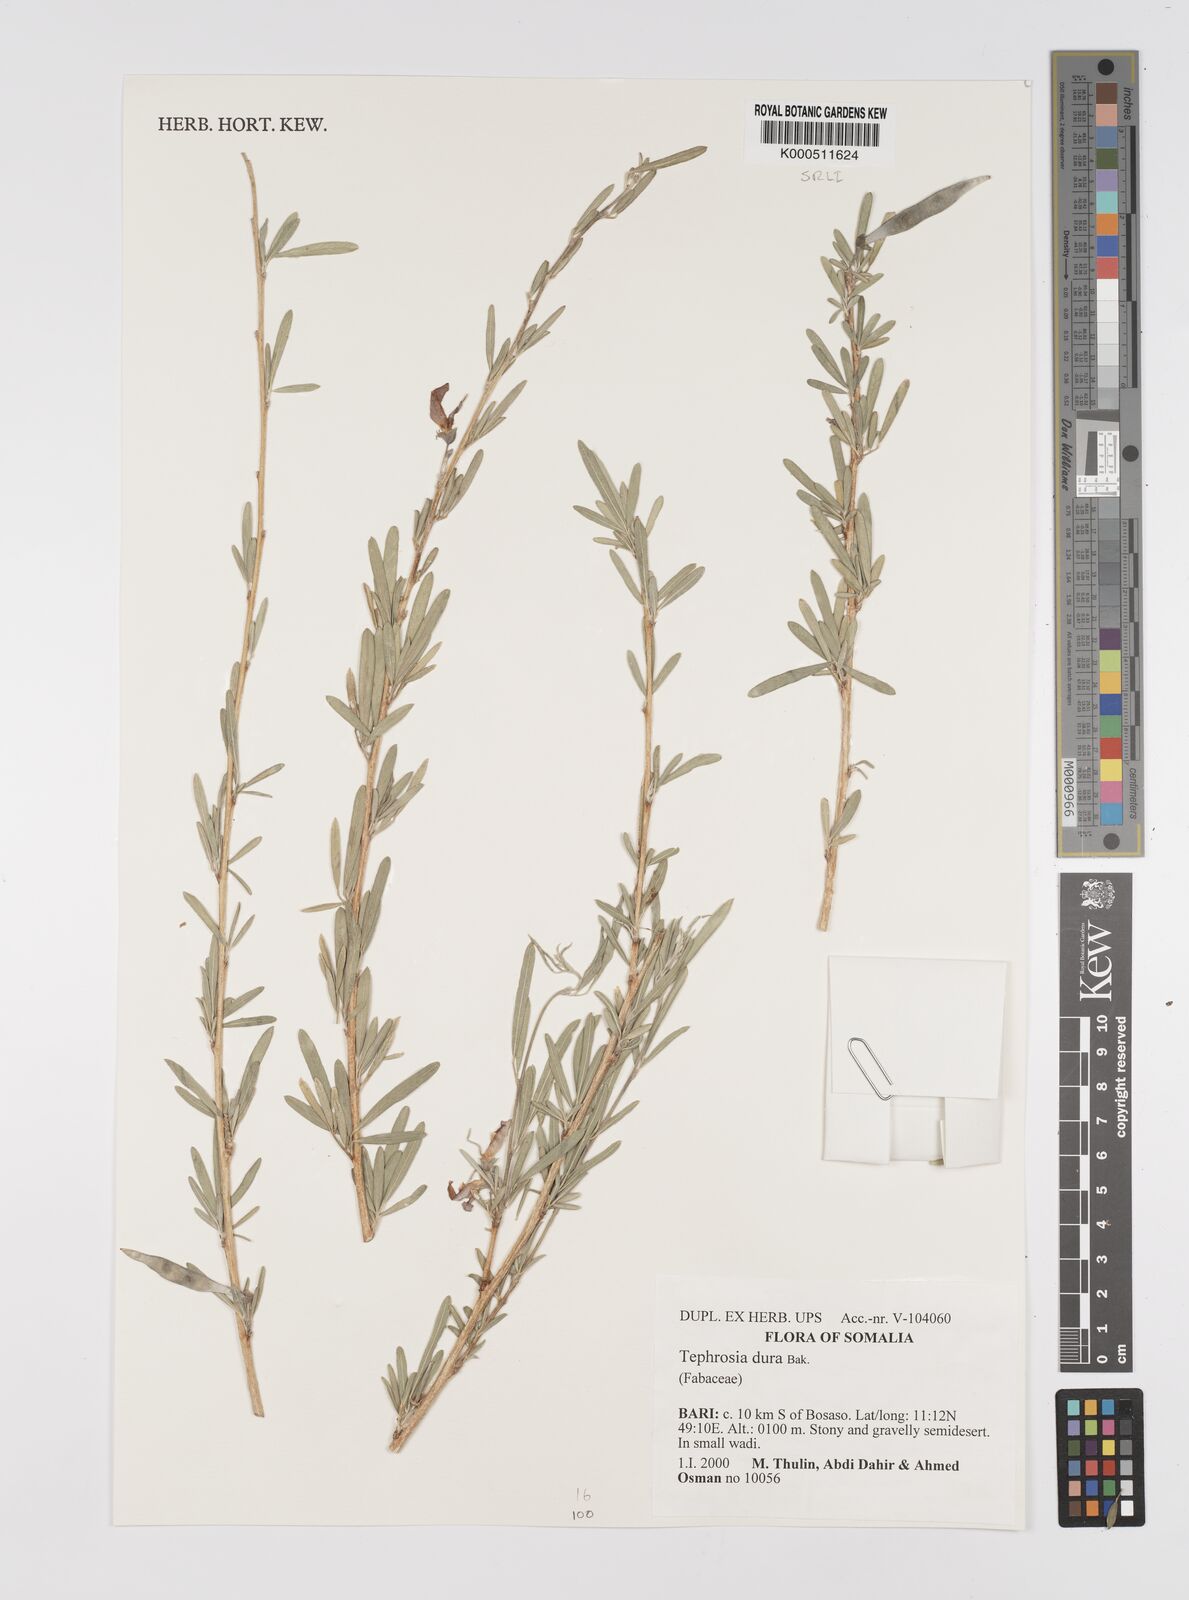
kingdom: Plantae
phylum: Tracheophyta
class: Magnoliopsida
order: Fabales
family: Fabaceae
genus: Tephrosia
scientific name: Tephrosia dura
